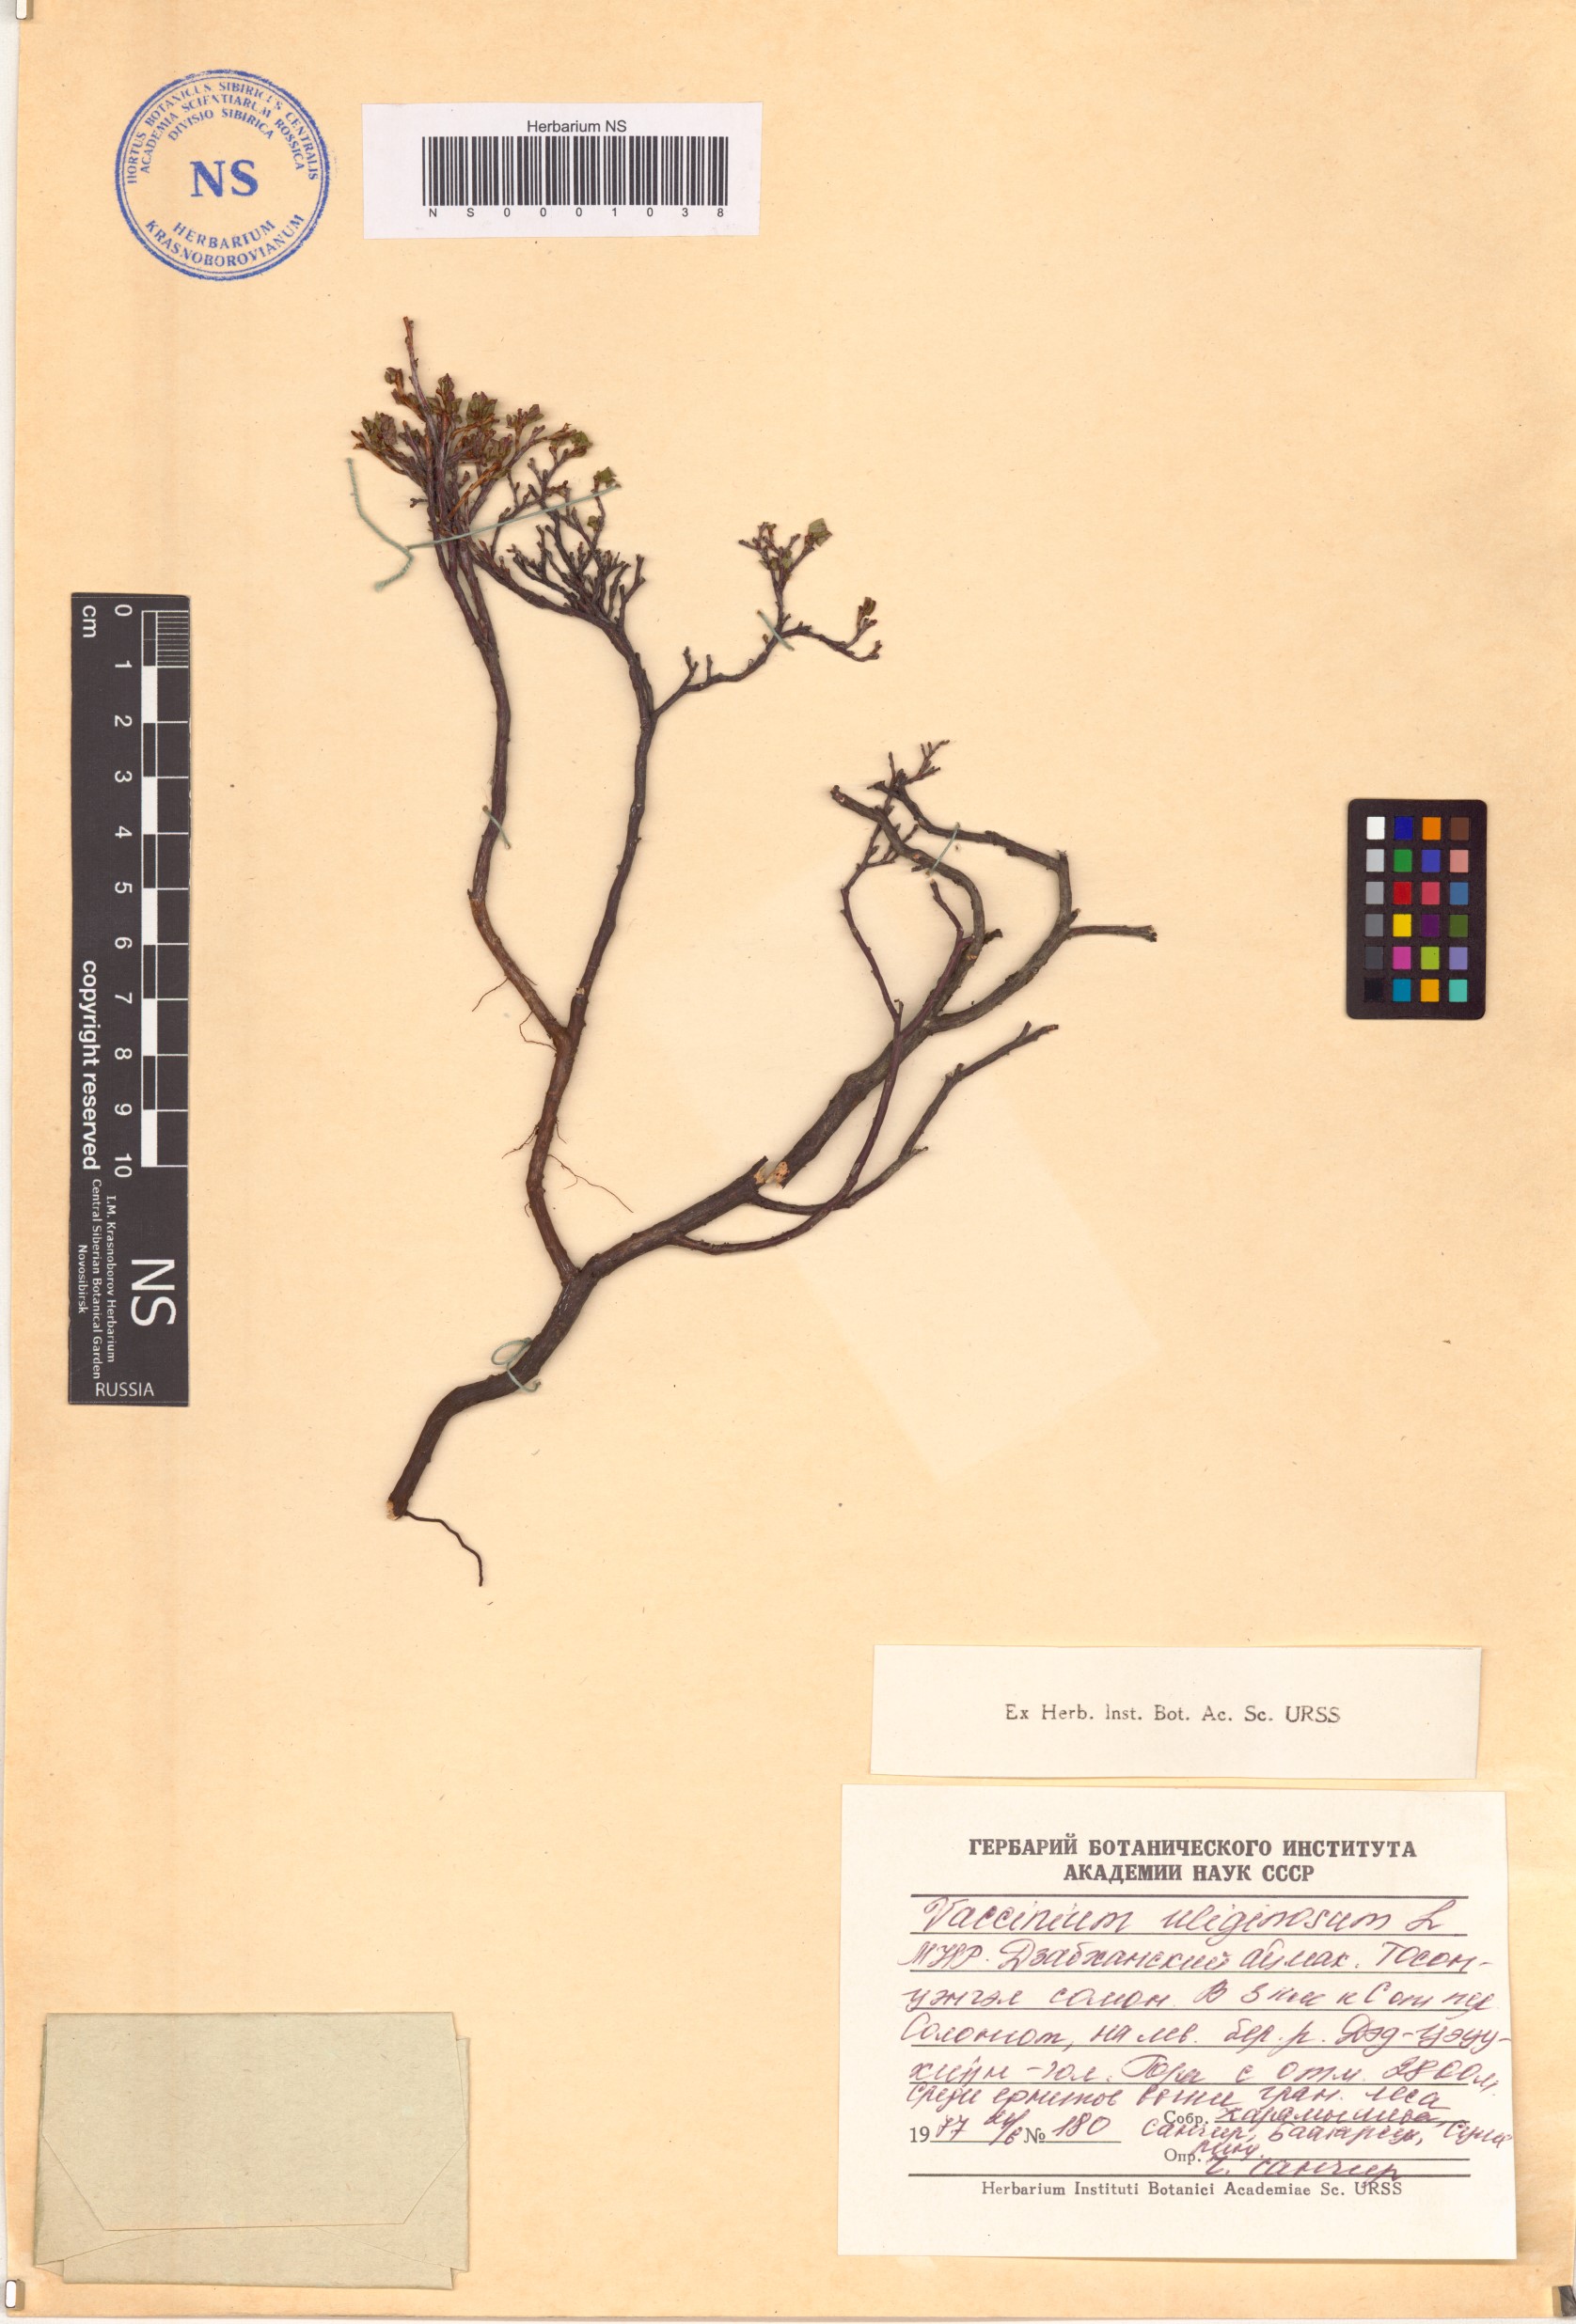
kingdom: Plantae
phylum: Tracheophyta
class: Magnoliopsida
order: Ericales
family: Ericaceae
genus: Vaccinium
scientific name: Vaccinium uliginosum
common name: Bog bilberry
